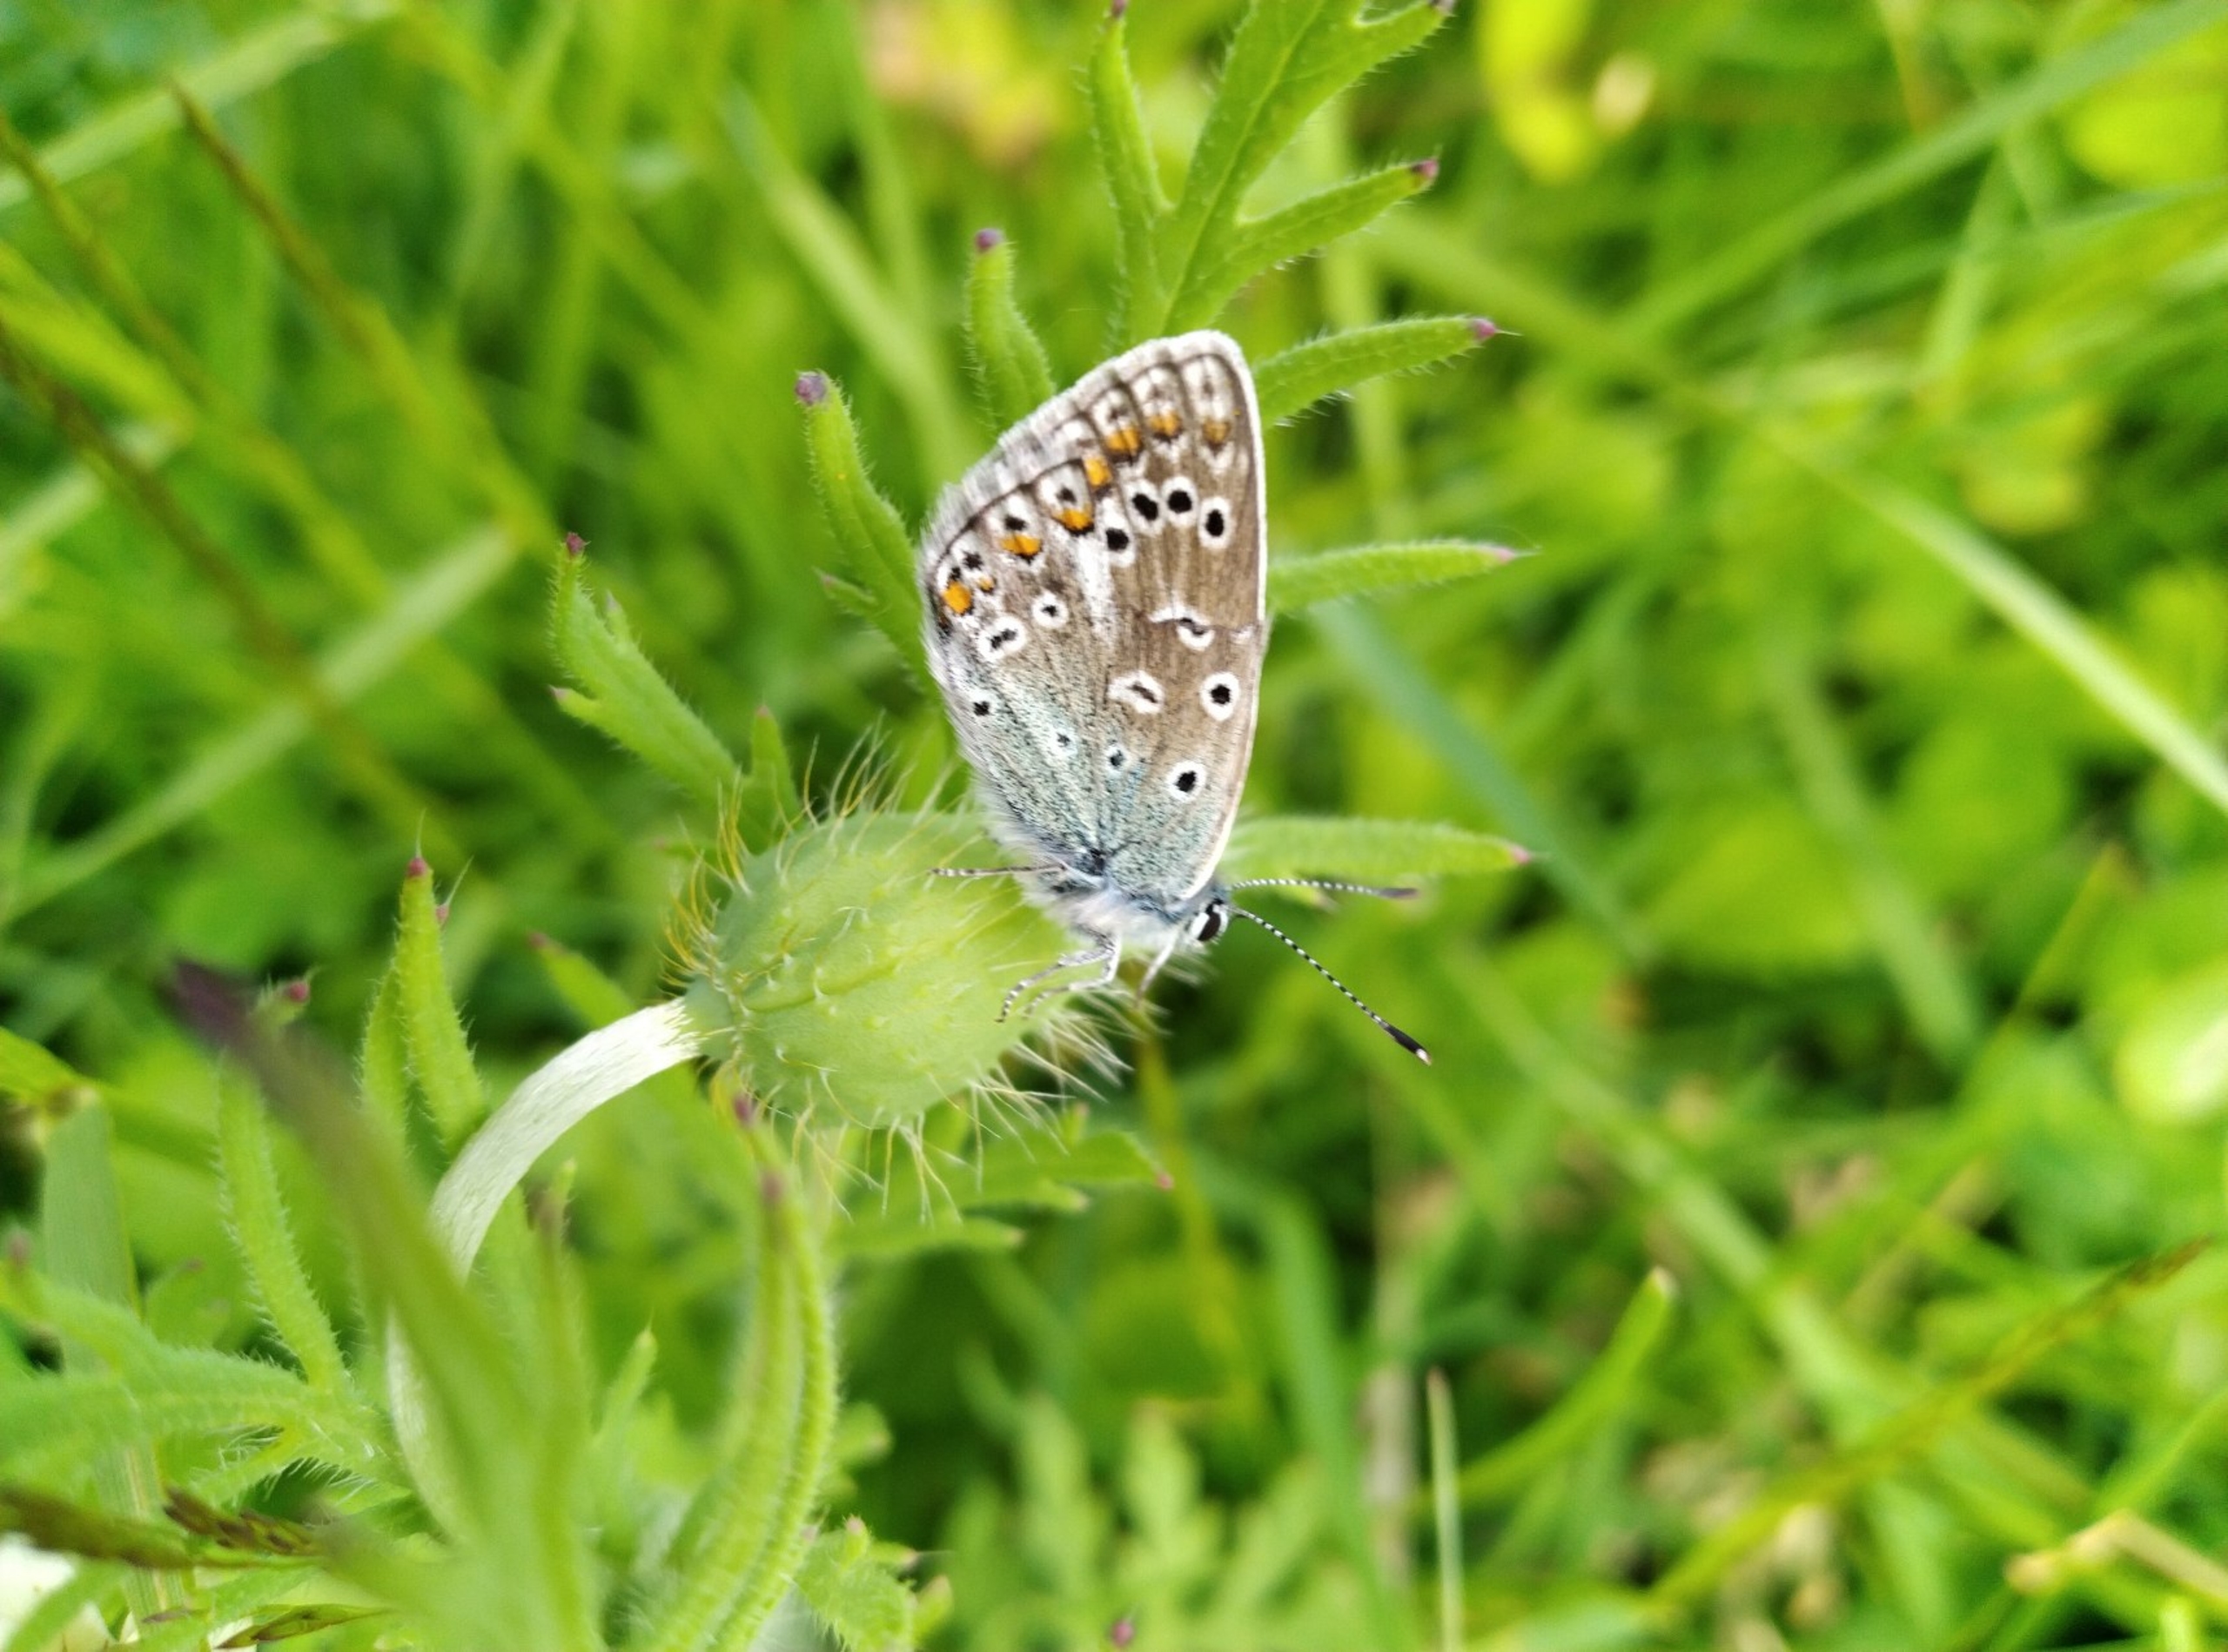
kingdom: Animalia
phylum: Arthropoda
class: Insecta
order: Lepidoptera
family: Lycaenidae
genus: Polyommatus
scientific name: Polyommatus icarus
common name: Almindelig blåfugl
